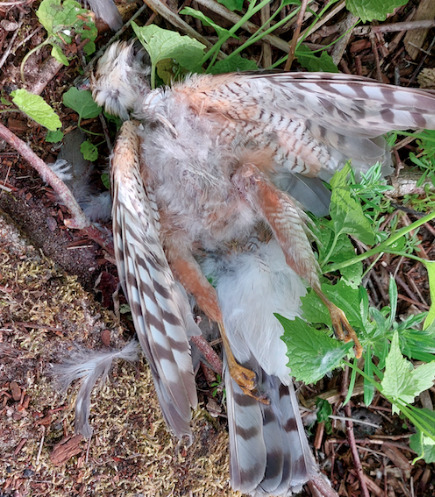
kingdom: Animalia
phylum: Chordata
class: Aves
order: Accipitriformes
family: Accipitridae
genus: Accipiter
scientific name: Accipiter nisus
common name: Spurvehøg
